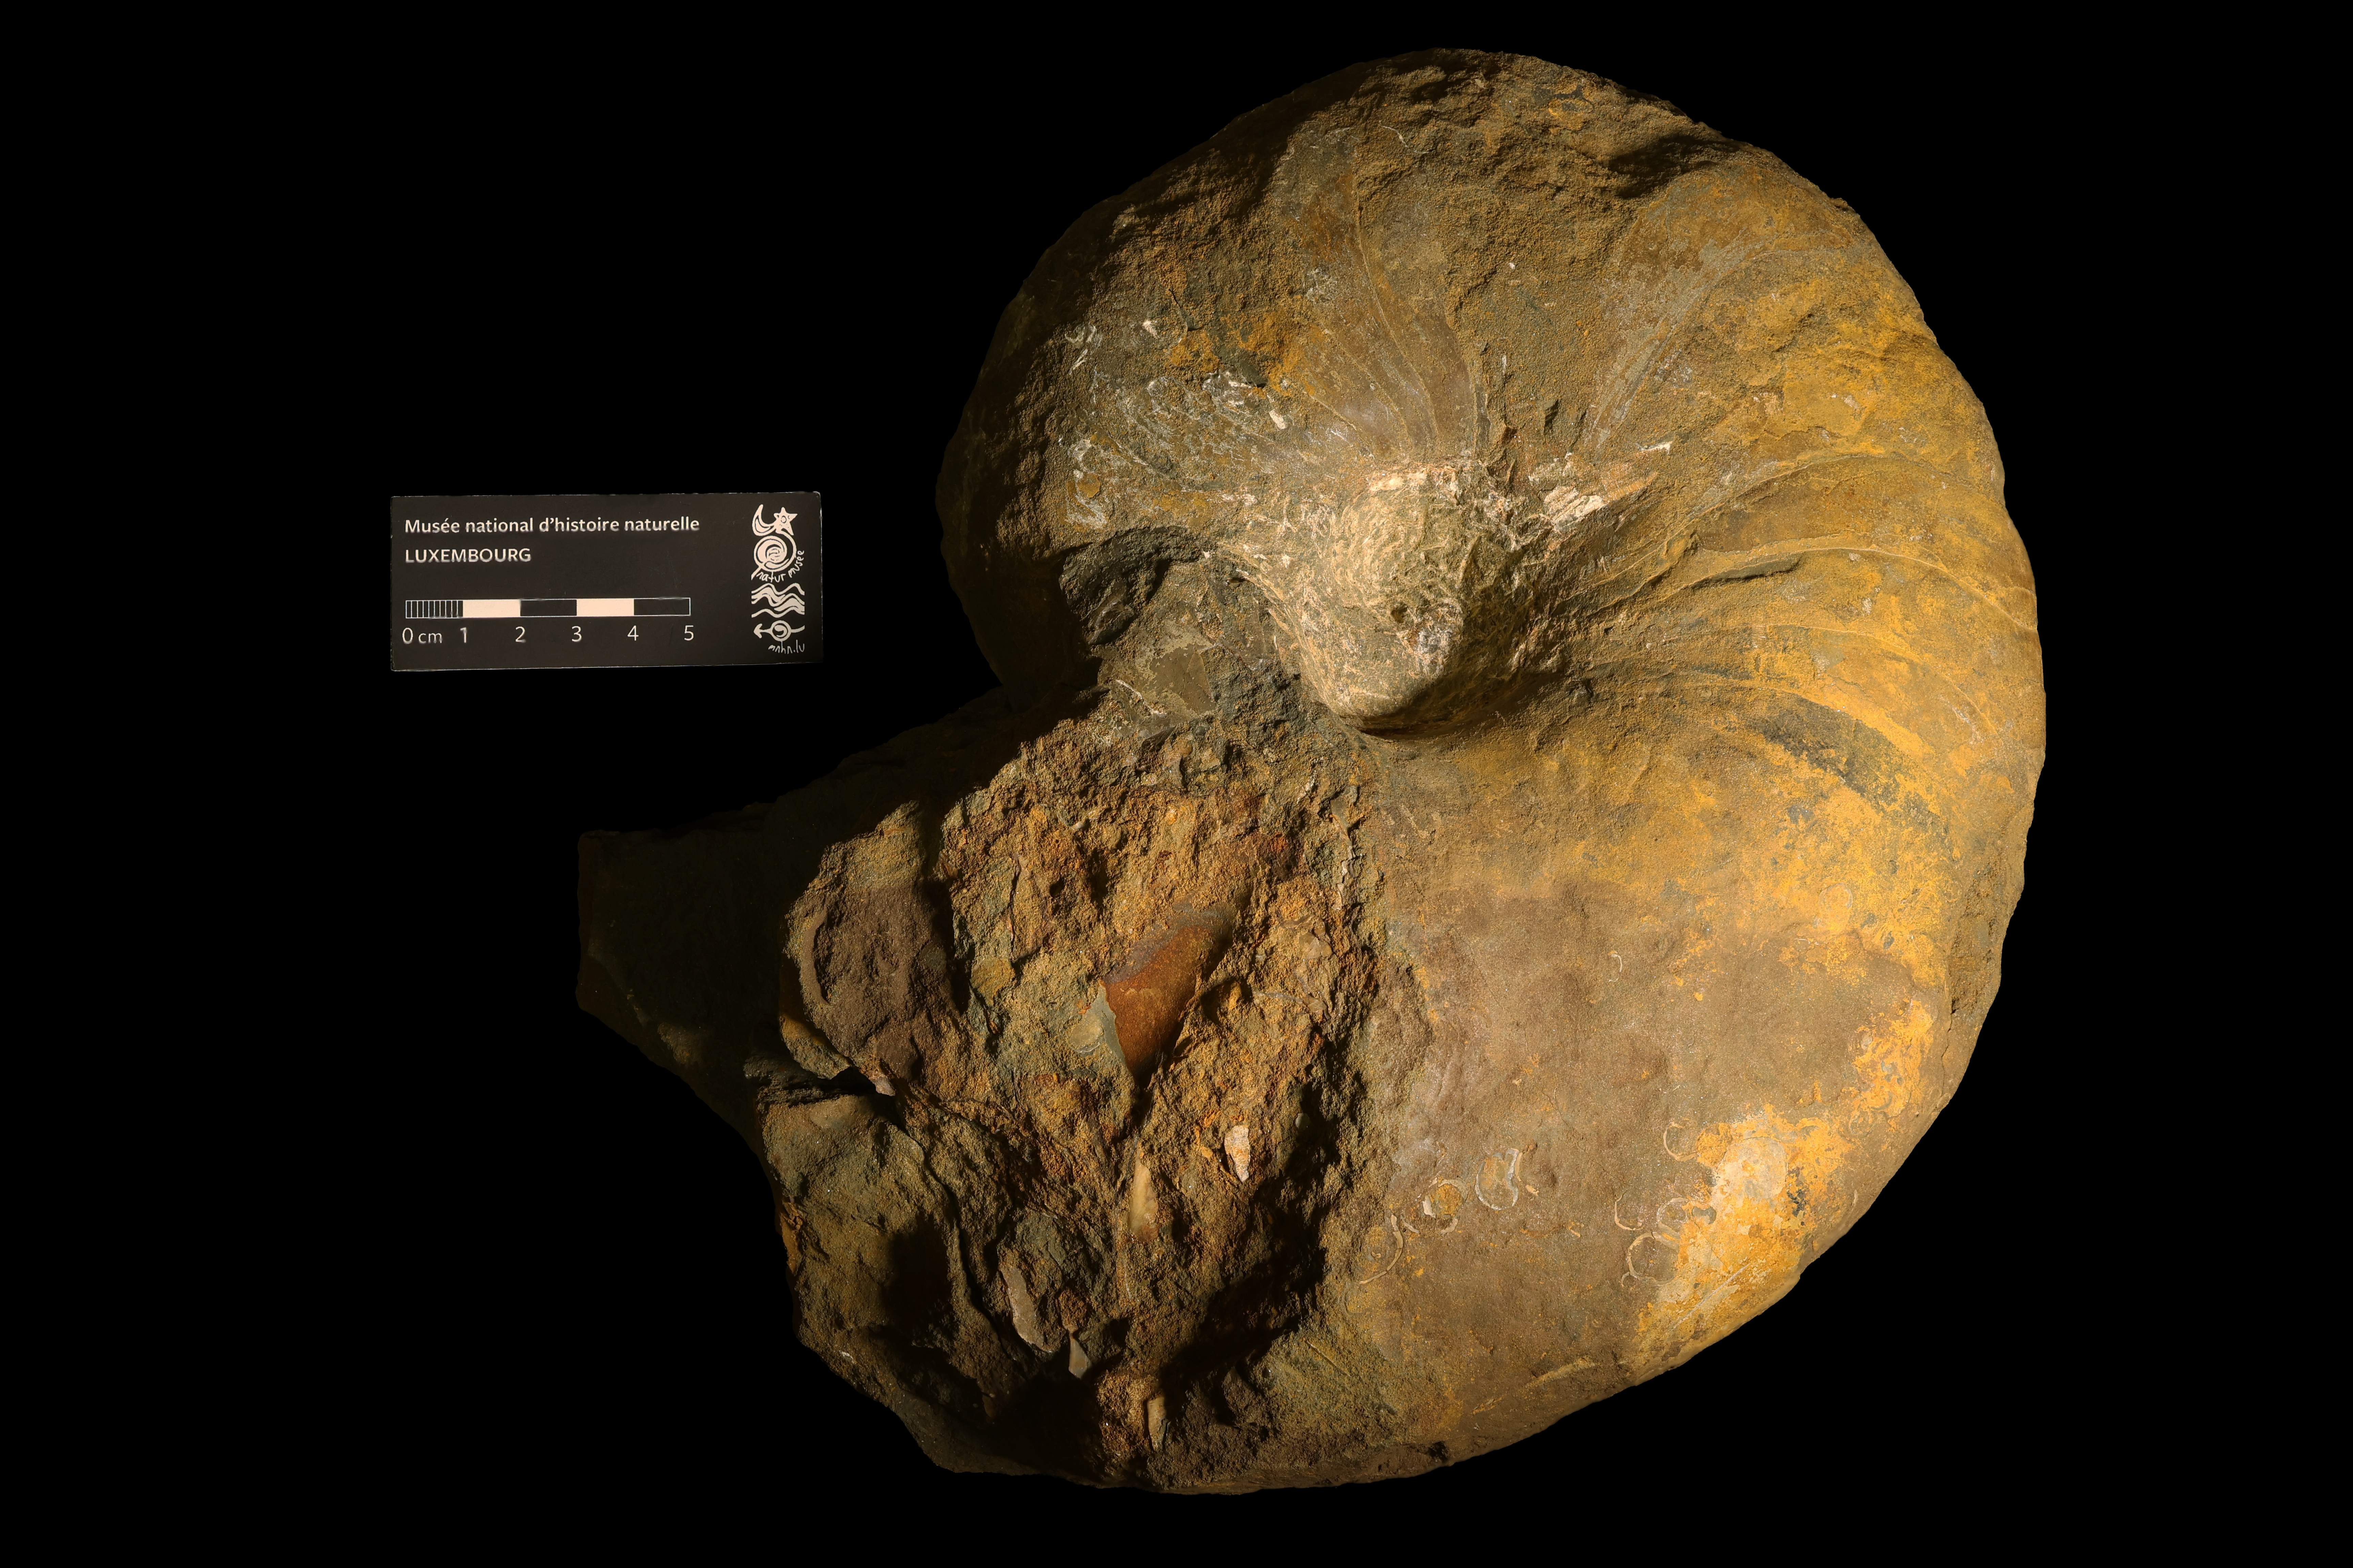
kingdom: Animalia
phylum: Mollusca
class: Cephalopoda
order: Nautilida
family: Nautilidae
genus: Cenoceras
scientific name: Cenoceras
